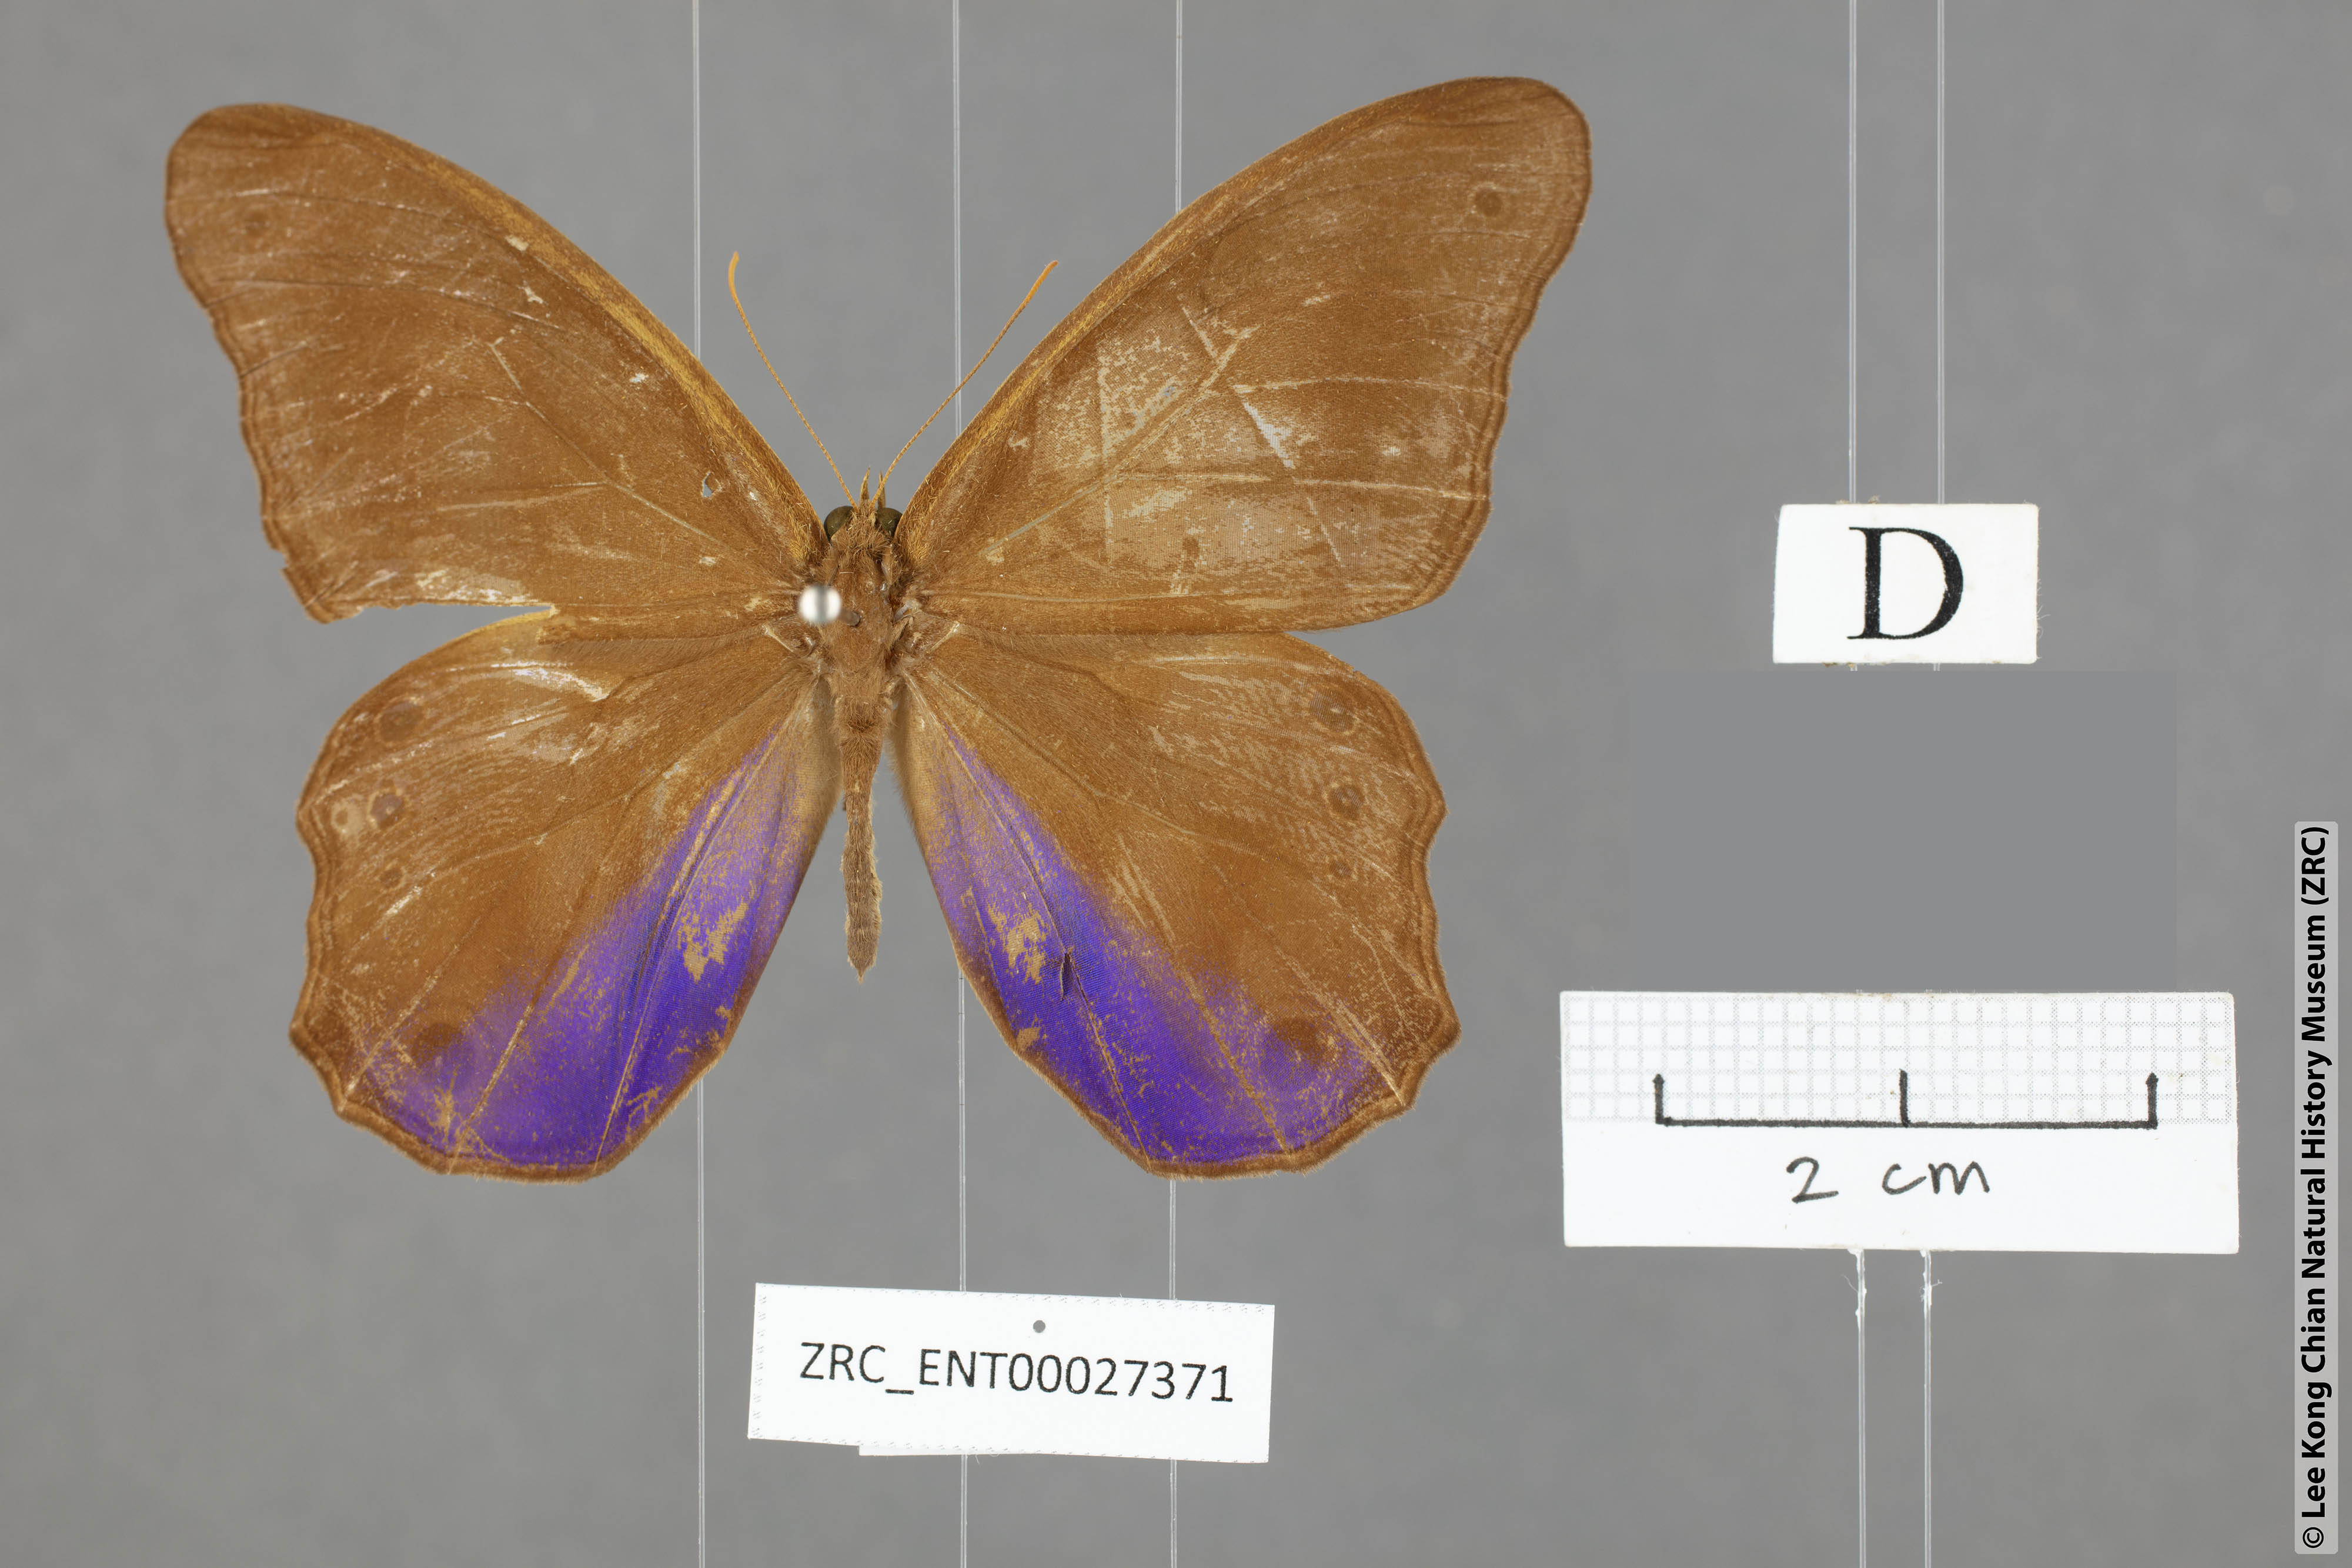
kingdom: Animalia
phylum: Arthropoda
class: Insecta
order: Lepidoptera
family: Nymphalidae
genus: Coelites
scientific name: Coelites euptychioides
